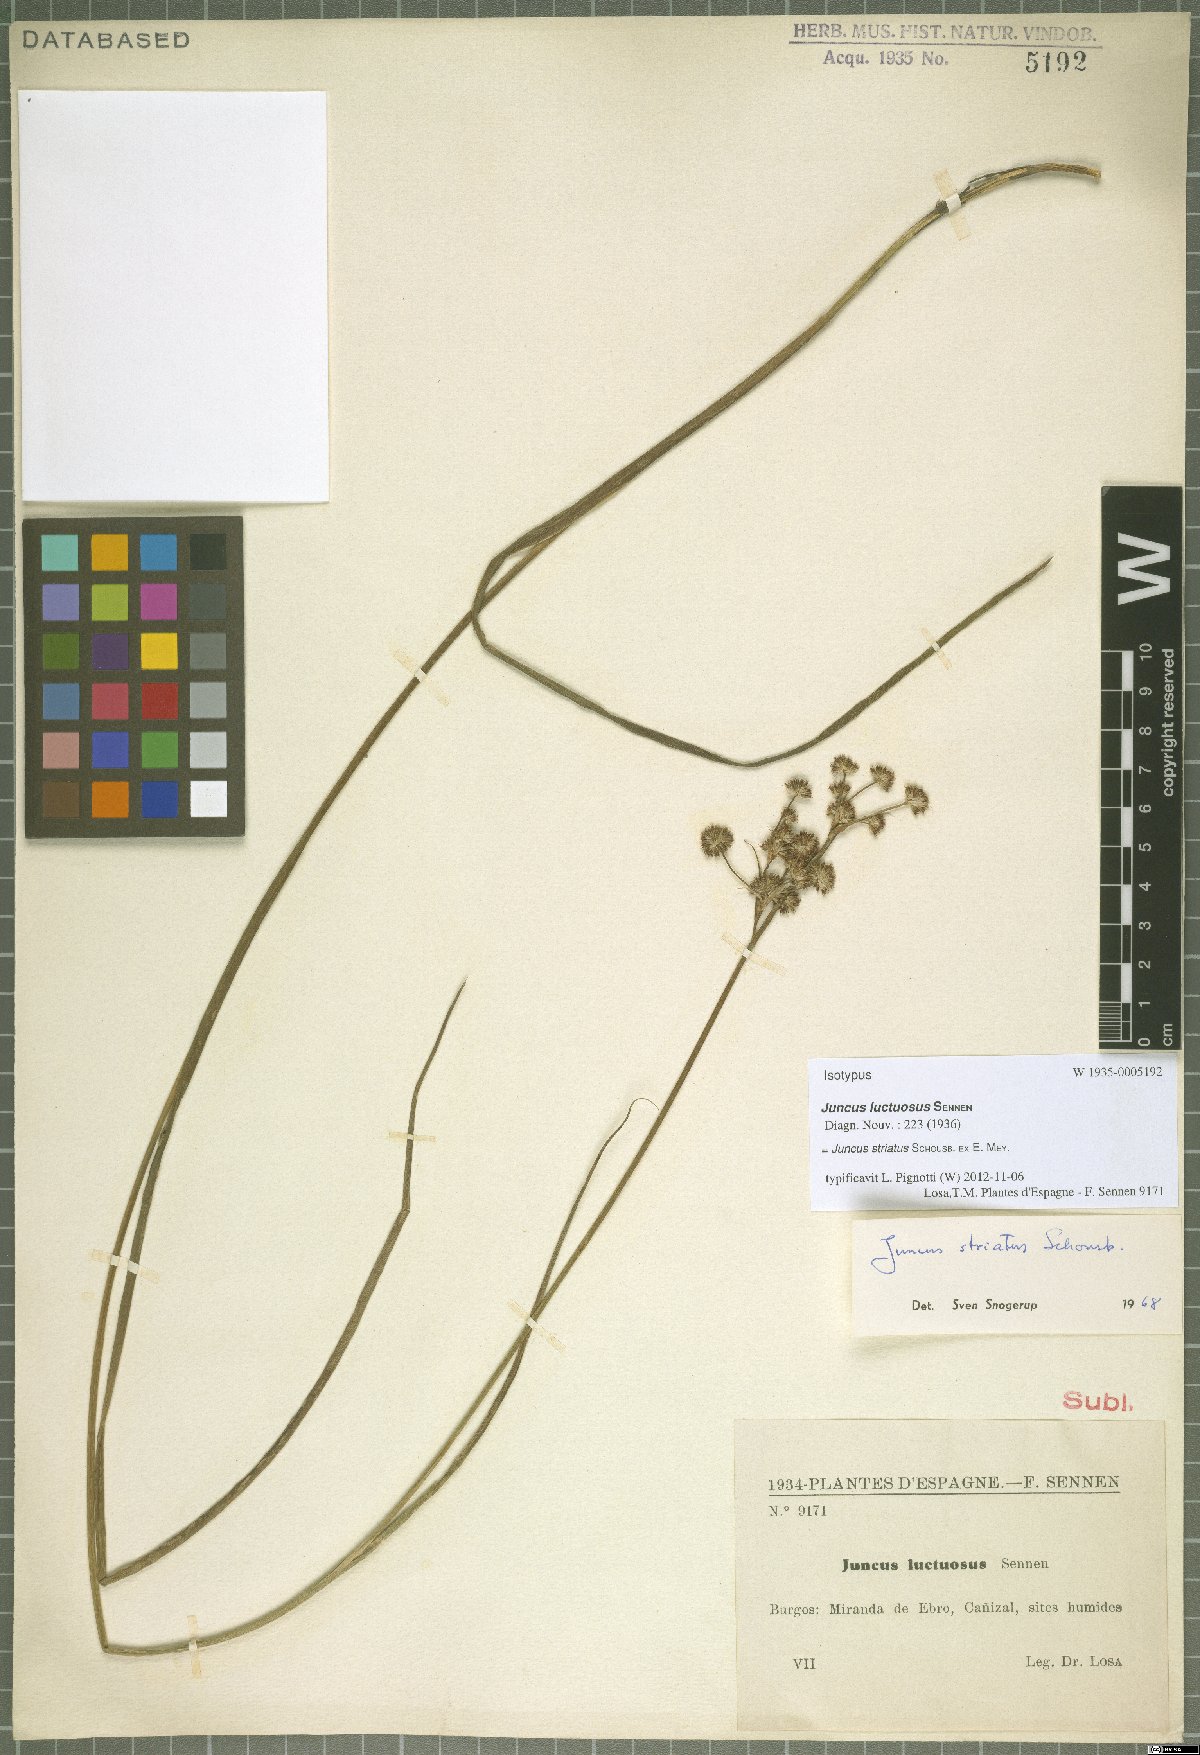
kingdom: Plantae
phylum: Tracheophyta
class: Liliopsida
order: Poales
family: Juncaceae
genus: Juncus
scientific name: Juncus striatus
